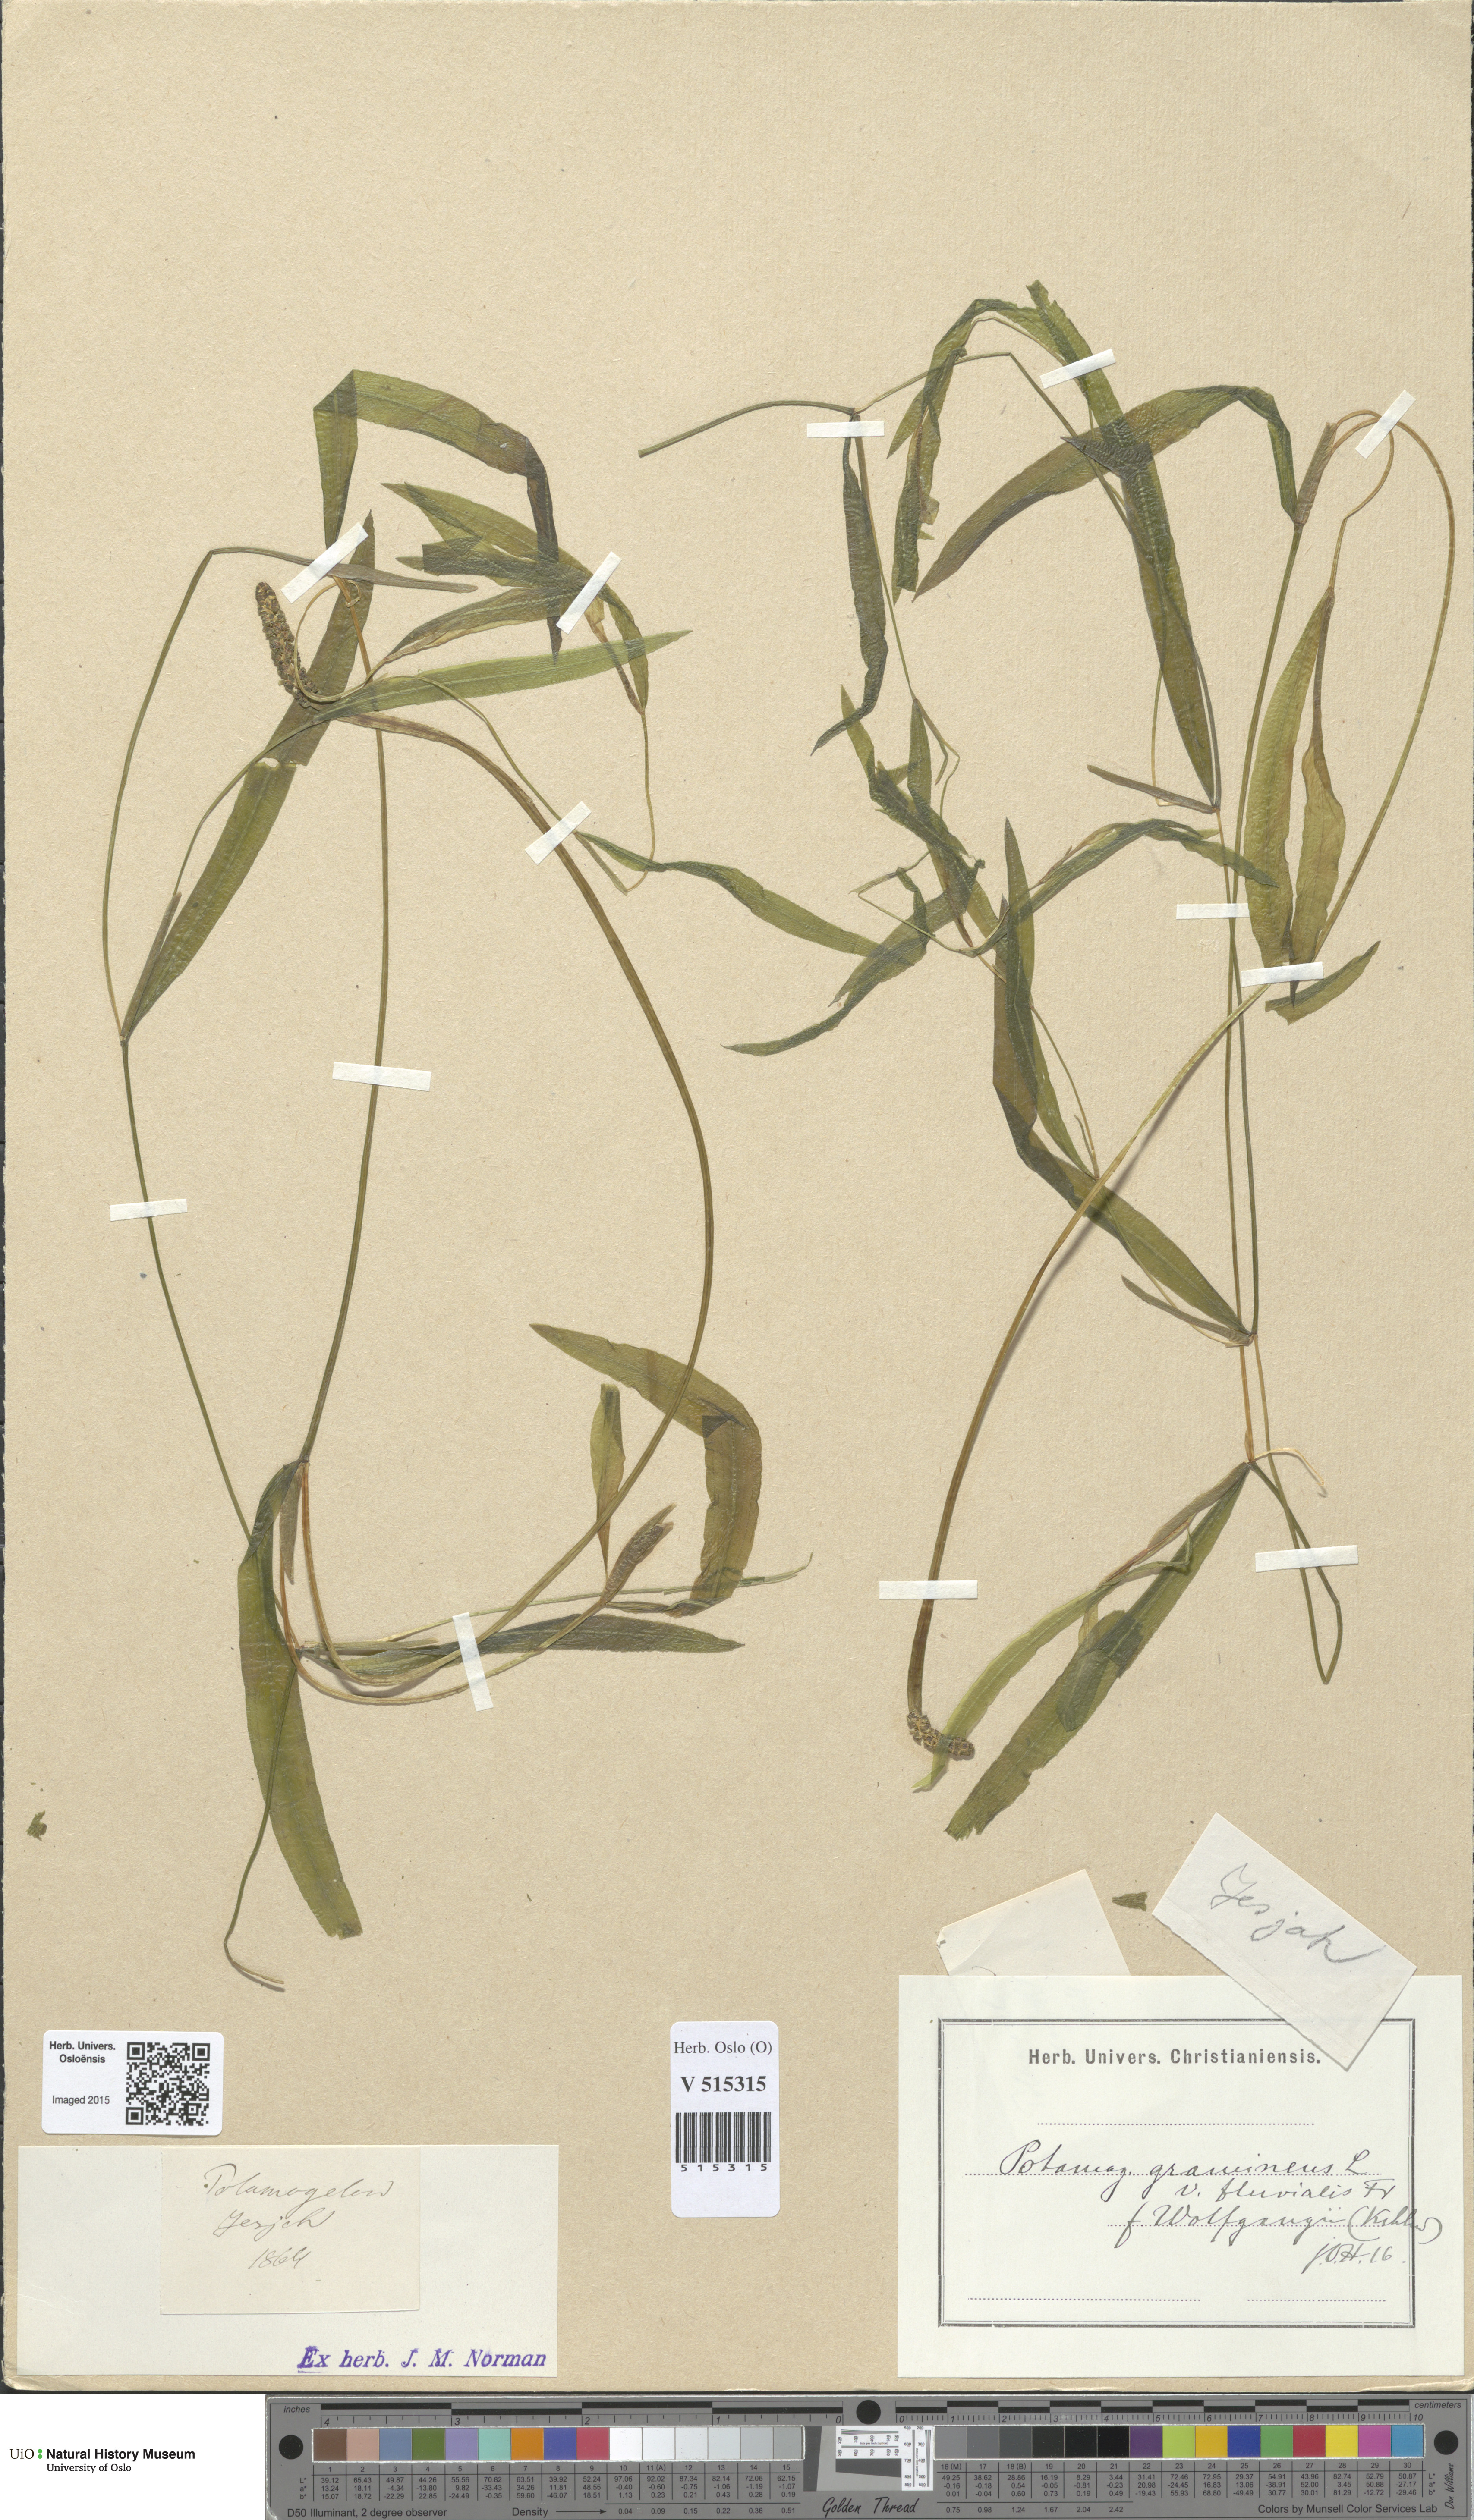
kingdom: Plantae
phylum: Tracheophyta
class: Liliopsida
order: Alismatales
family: Potamogetonaceae
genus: Potamogeton
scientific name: Potamogeton gramineus
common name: Various-leaved pondweed
